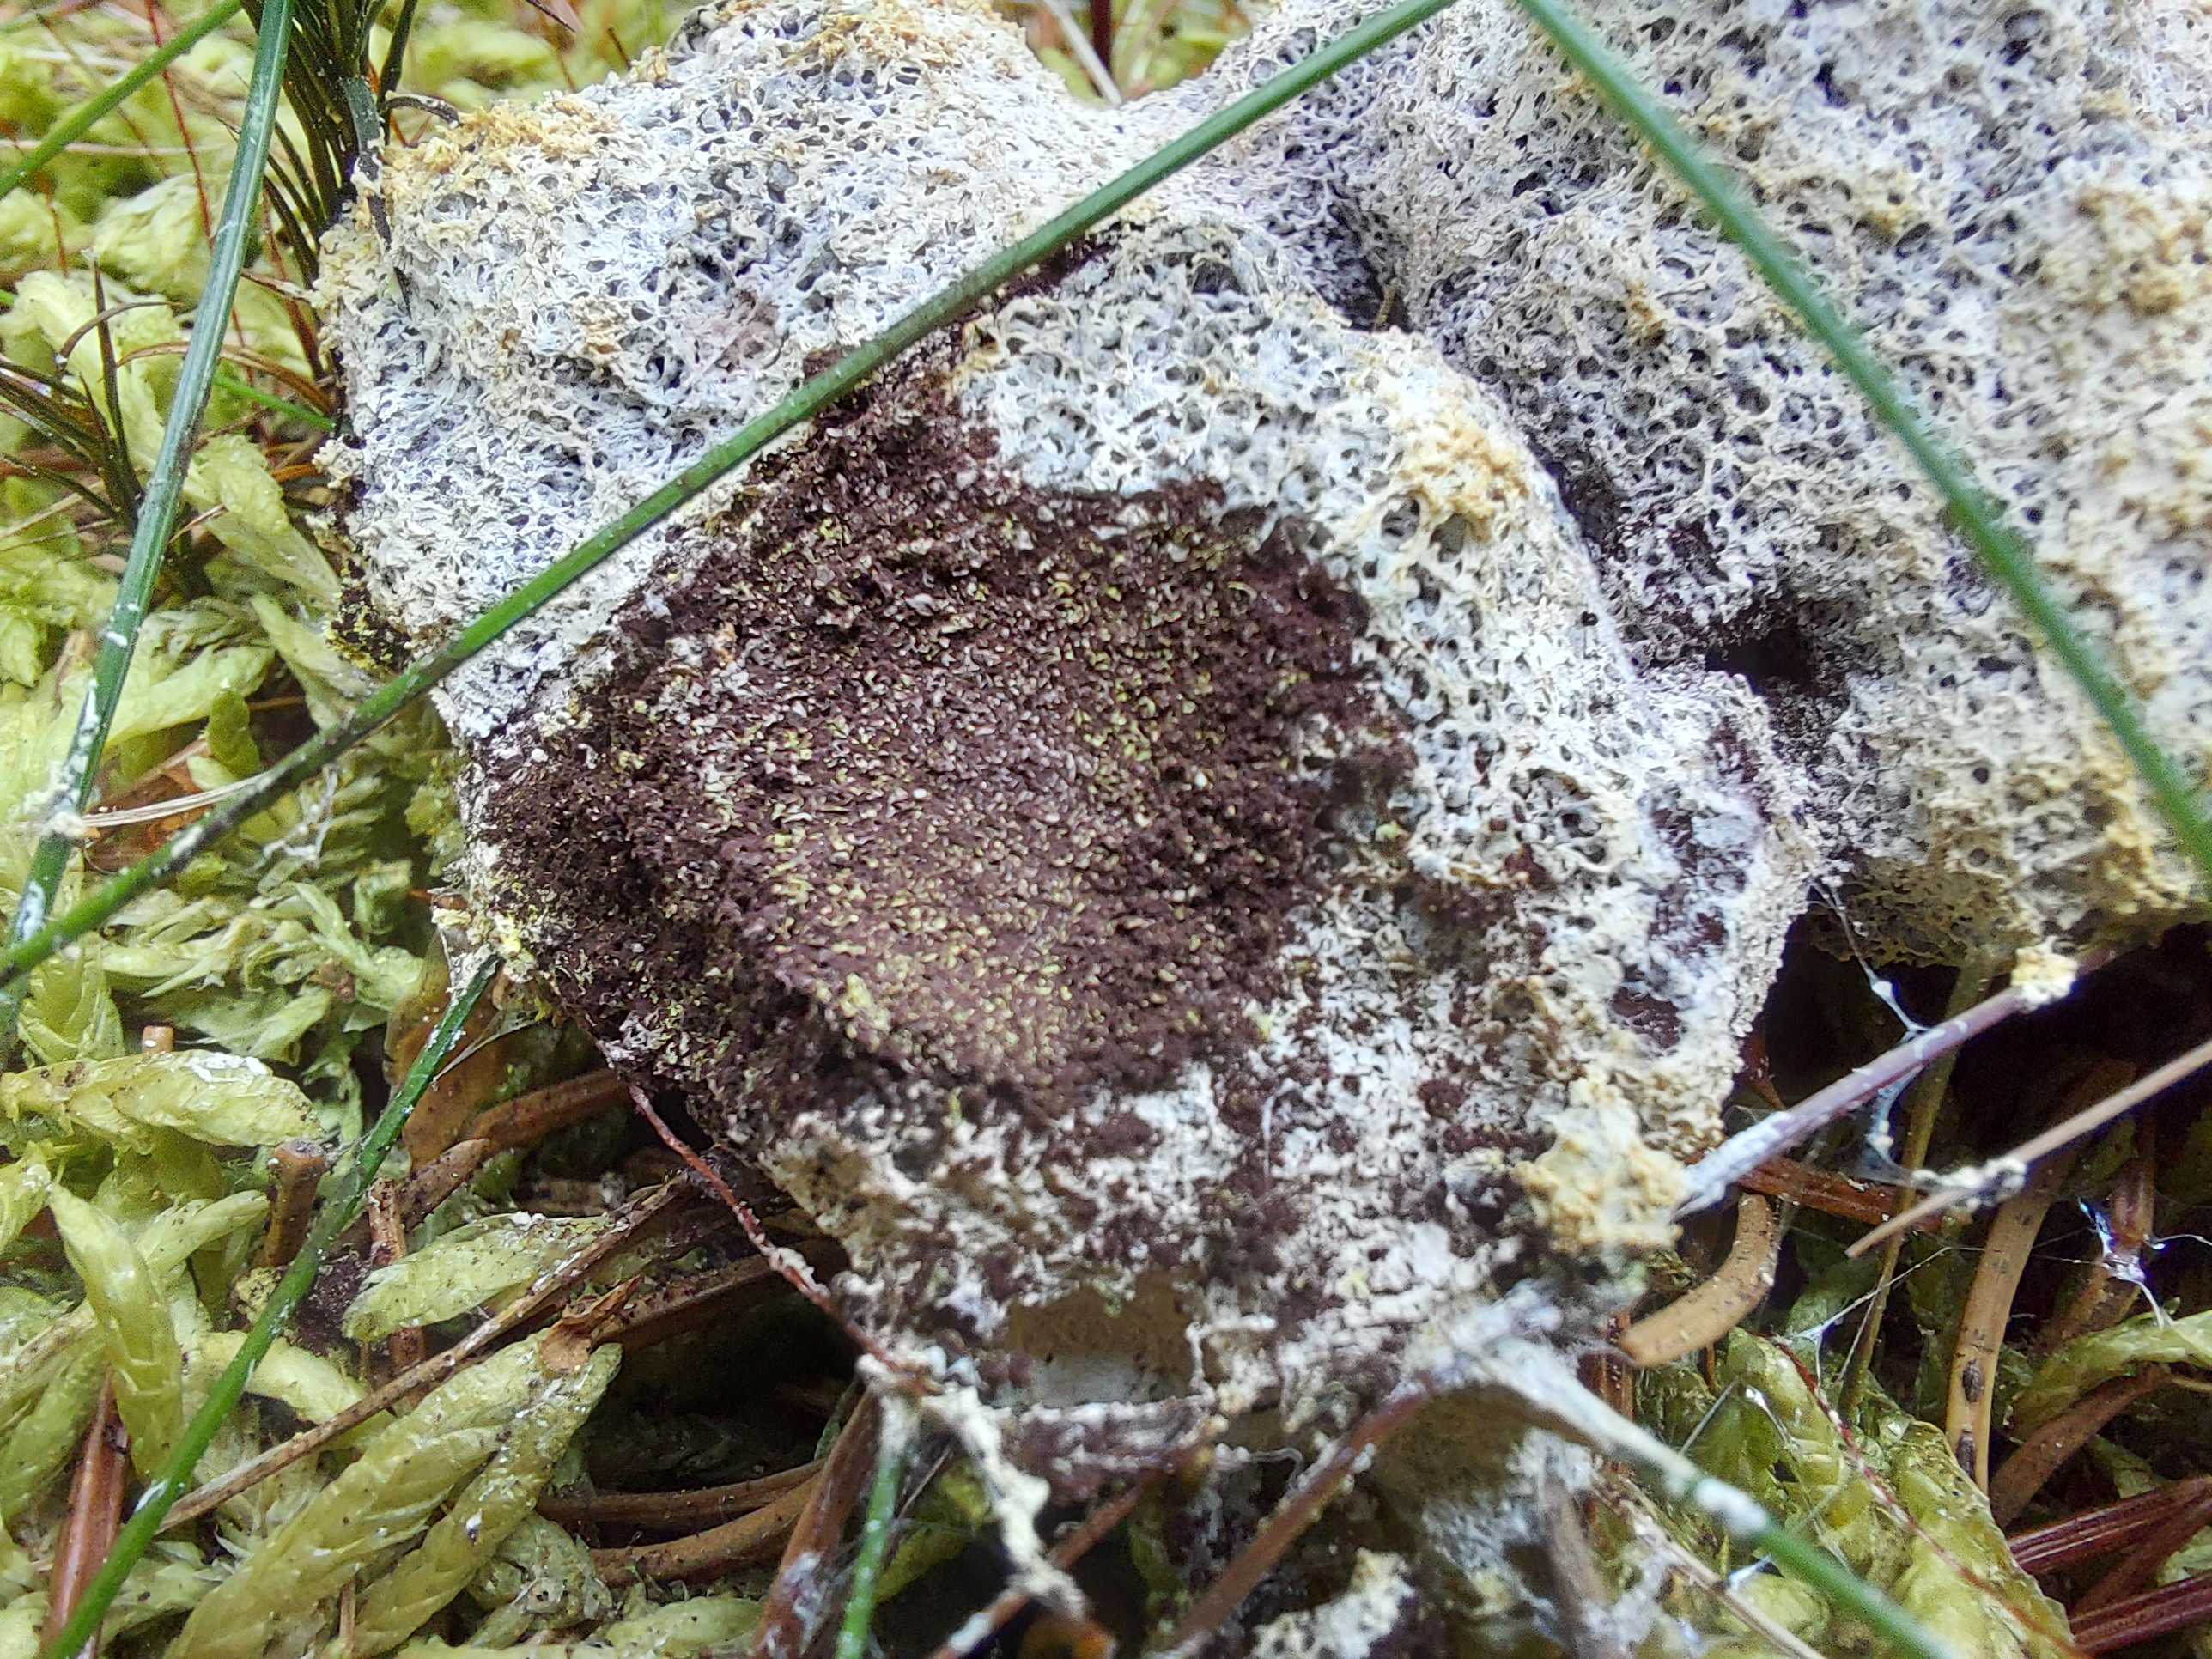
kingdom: Protozoa
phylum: Mycetozoa
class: Myxomycetes
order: Physarales
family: Physaraceae
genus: Fuligo
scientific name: Fuligo
